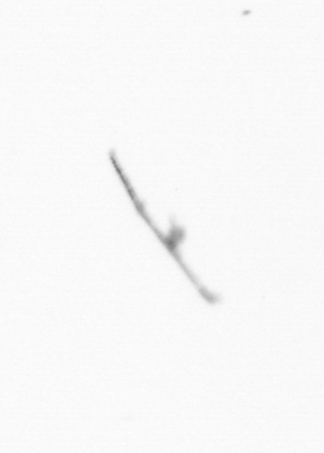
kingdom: Chromista
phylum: Ochrophyta
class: Bacillariophyceae
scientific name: Bacillariophyceae
